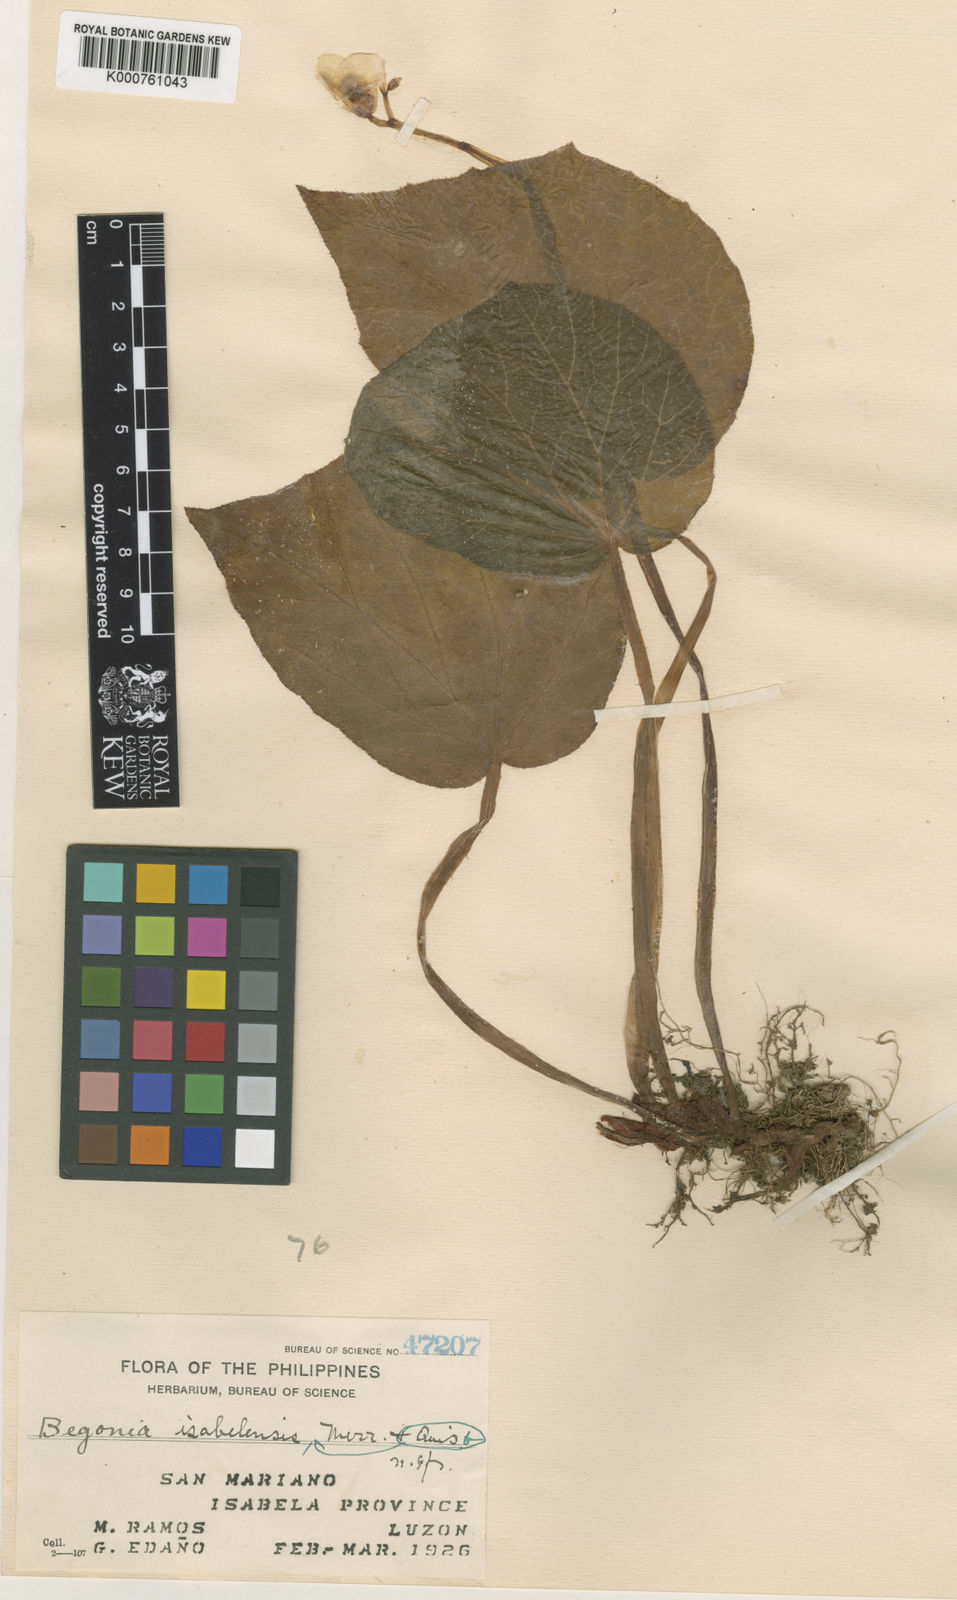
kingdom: Plantae
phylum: Tracheophyta
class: Magnoliopsida
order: Cucurbitales
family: Begoniaceae
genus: Begonia
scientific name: Begonia isabelensis
